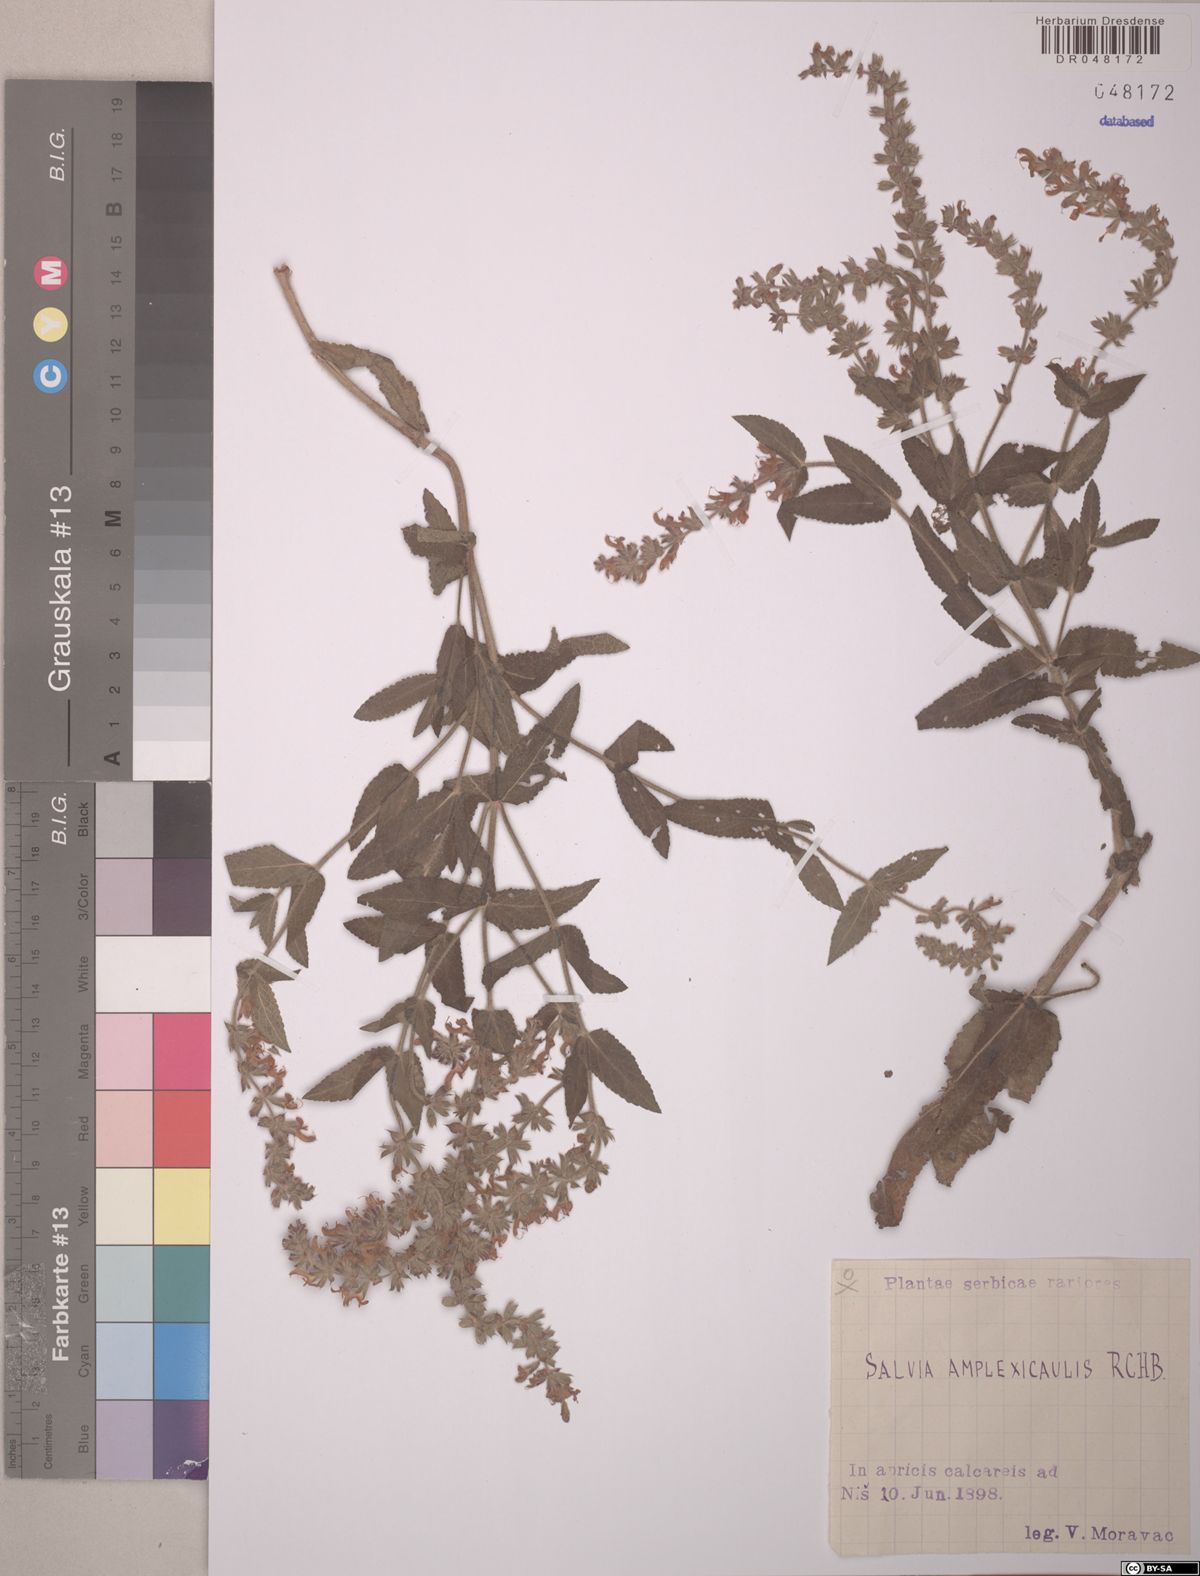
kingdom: Plantae
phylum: Tracheophyta
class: Magnoliopsida
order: Lamiales
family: Lamiaceae
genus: Salvia
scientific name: Salvia amplexicaulis
